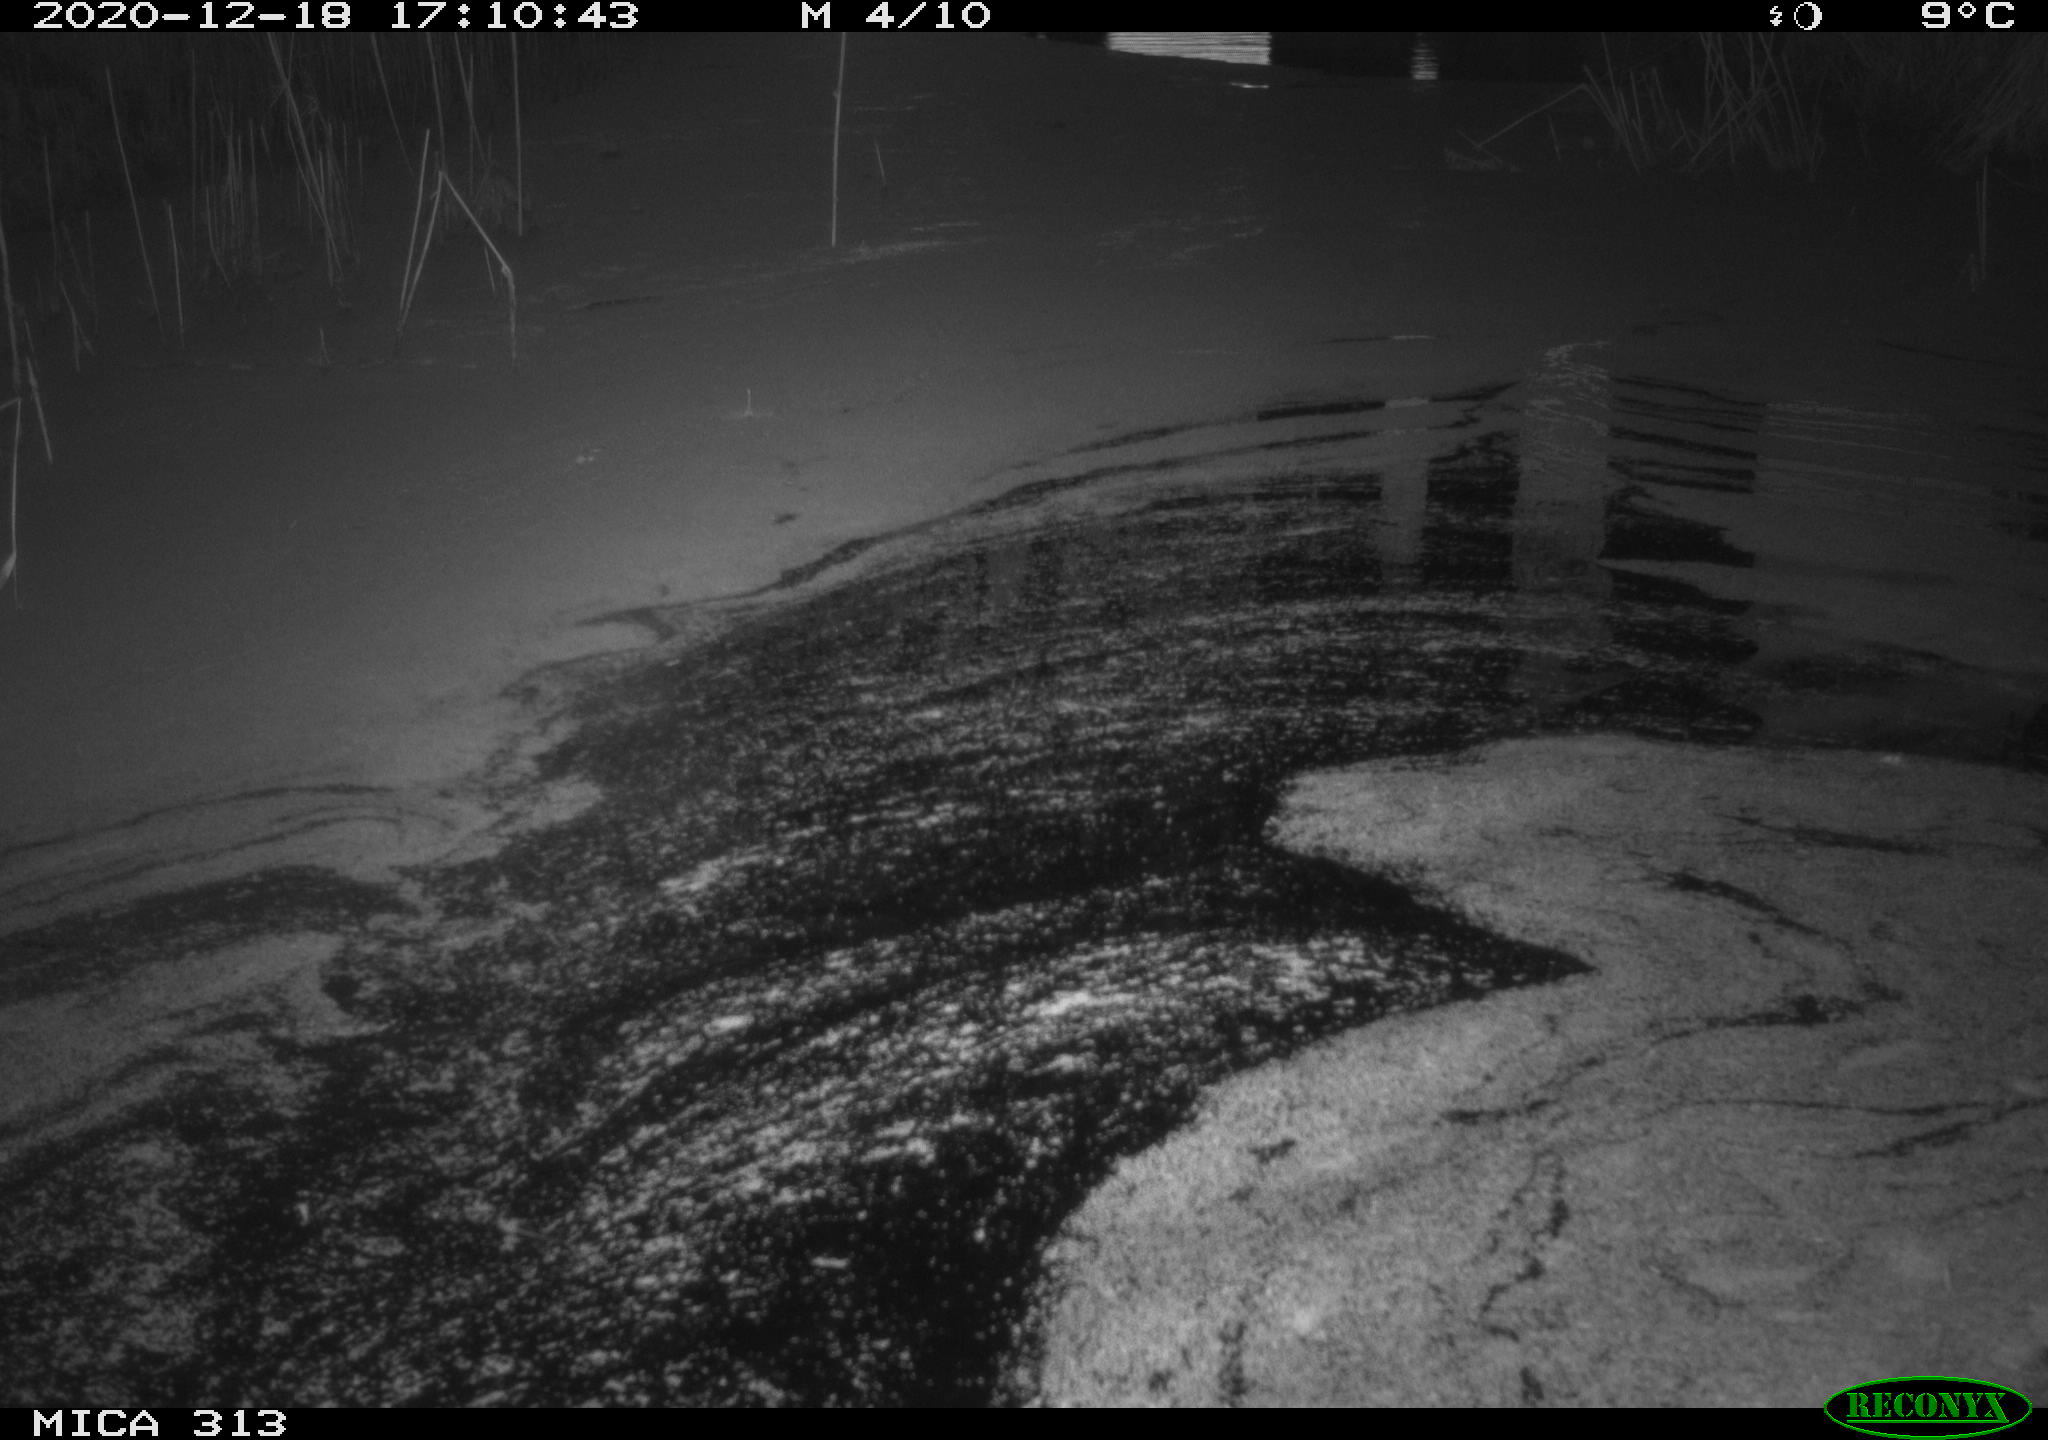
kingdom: Animalia
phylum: Chordata
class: Aves
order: Gruiformes
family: Rallidae
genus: Gallinula
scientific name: Gallinula chloropus
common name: Common moorhen
